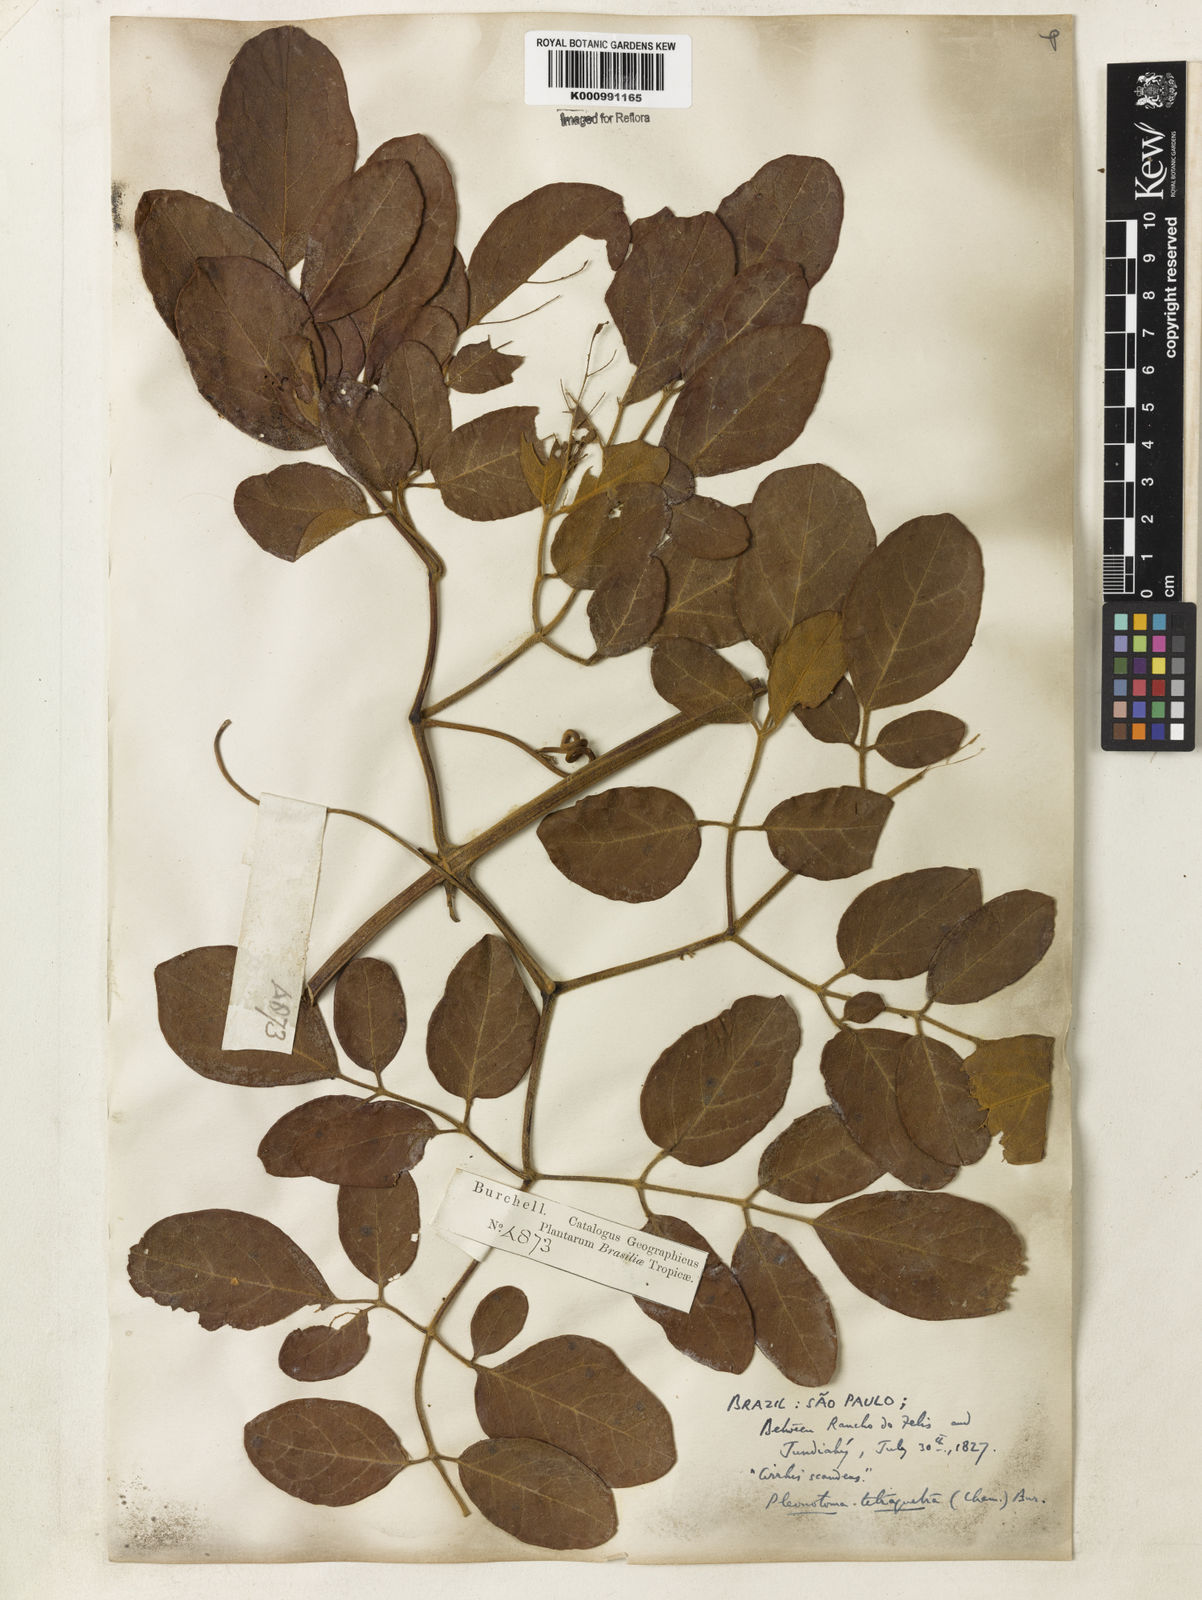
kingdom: Plantae
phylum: Tracheophyta
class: Magnoliopsida
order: Lamiales
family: Bignoniaceae
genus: Pleonotoma
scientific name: Pleonotoma tetraquetra
